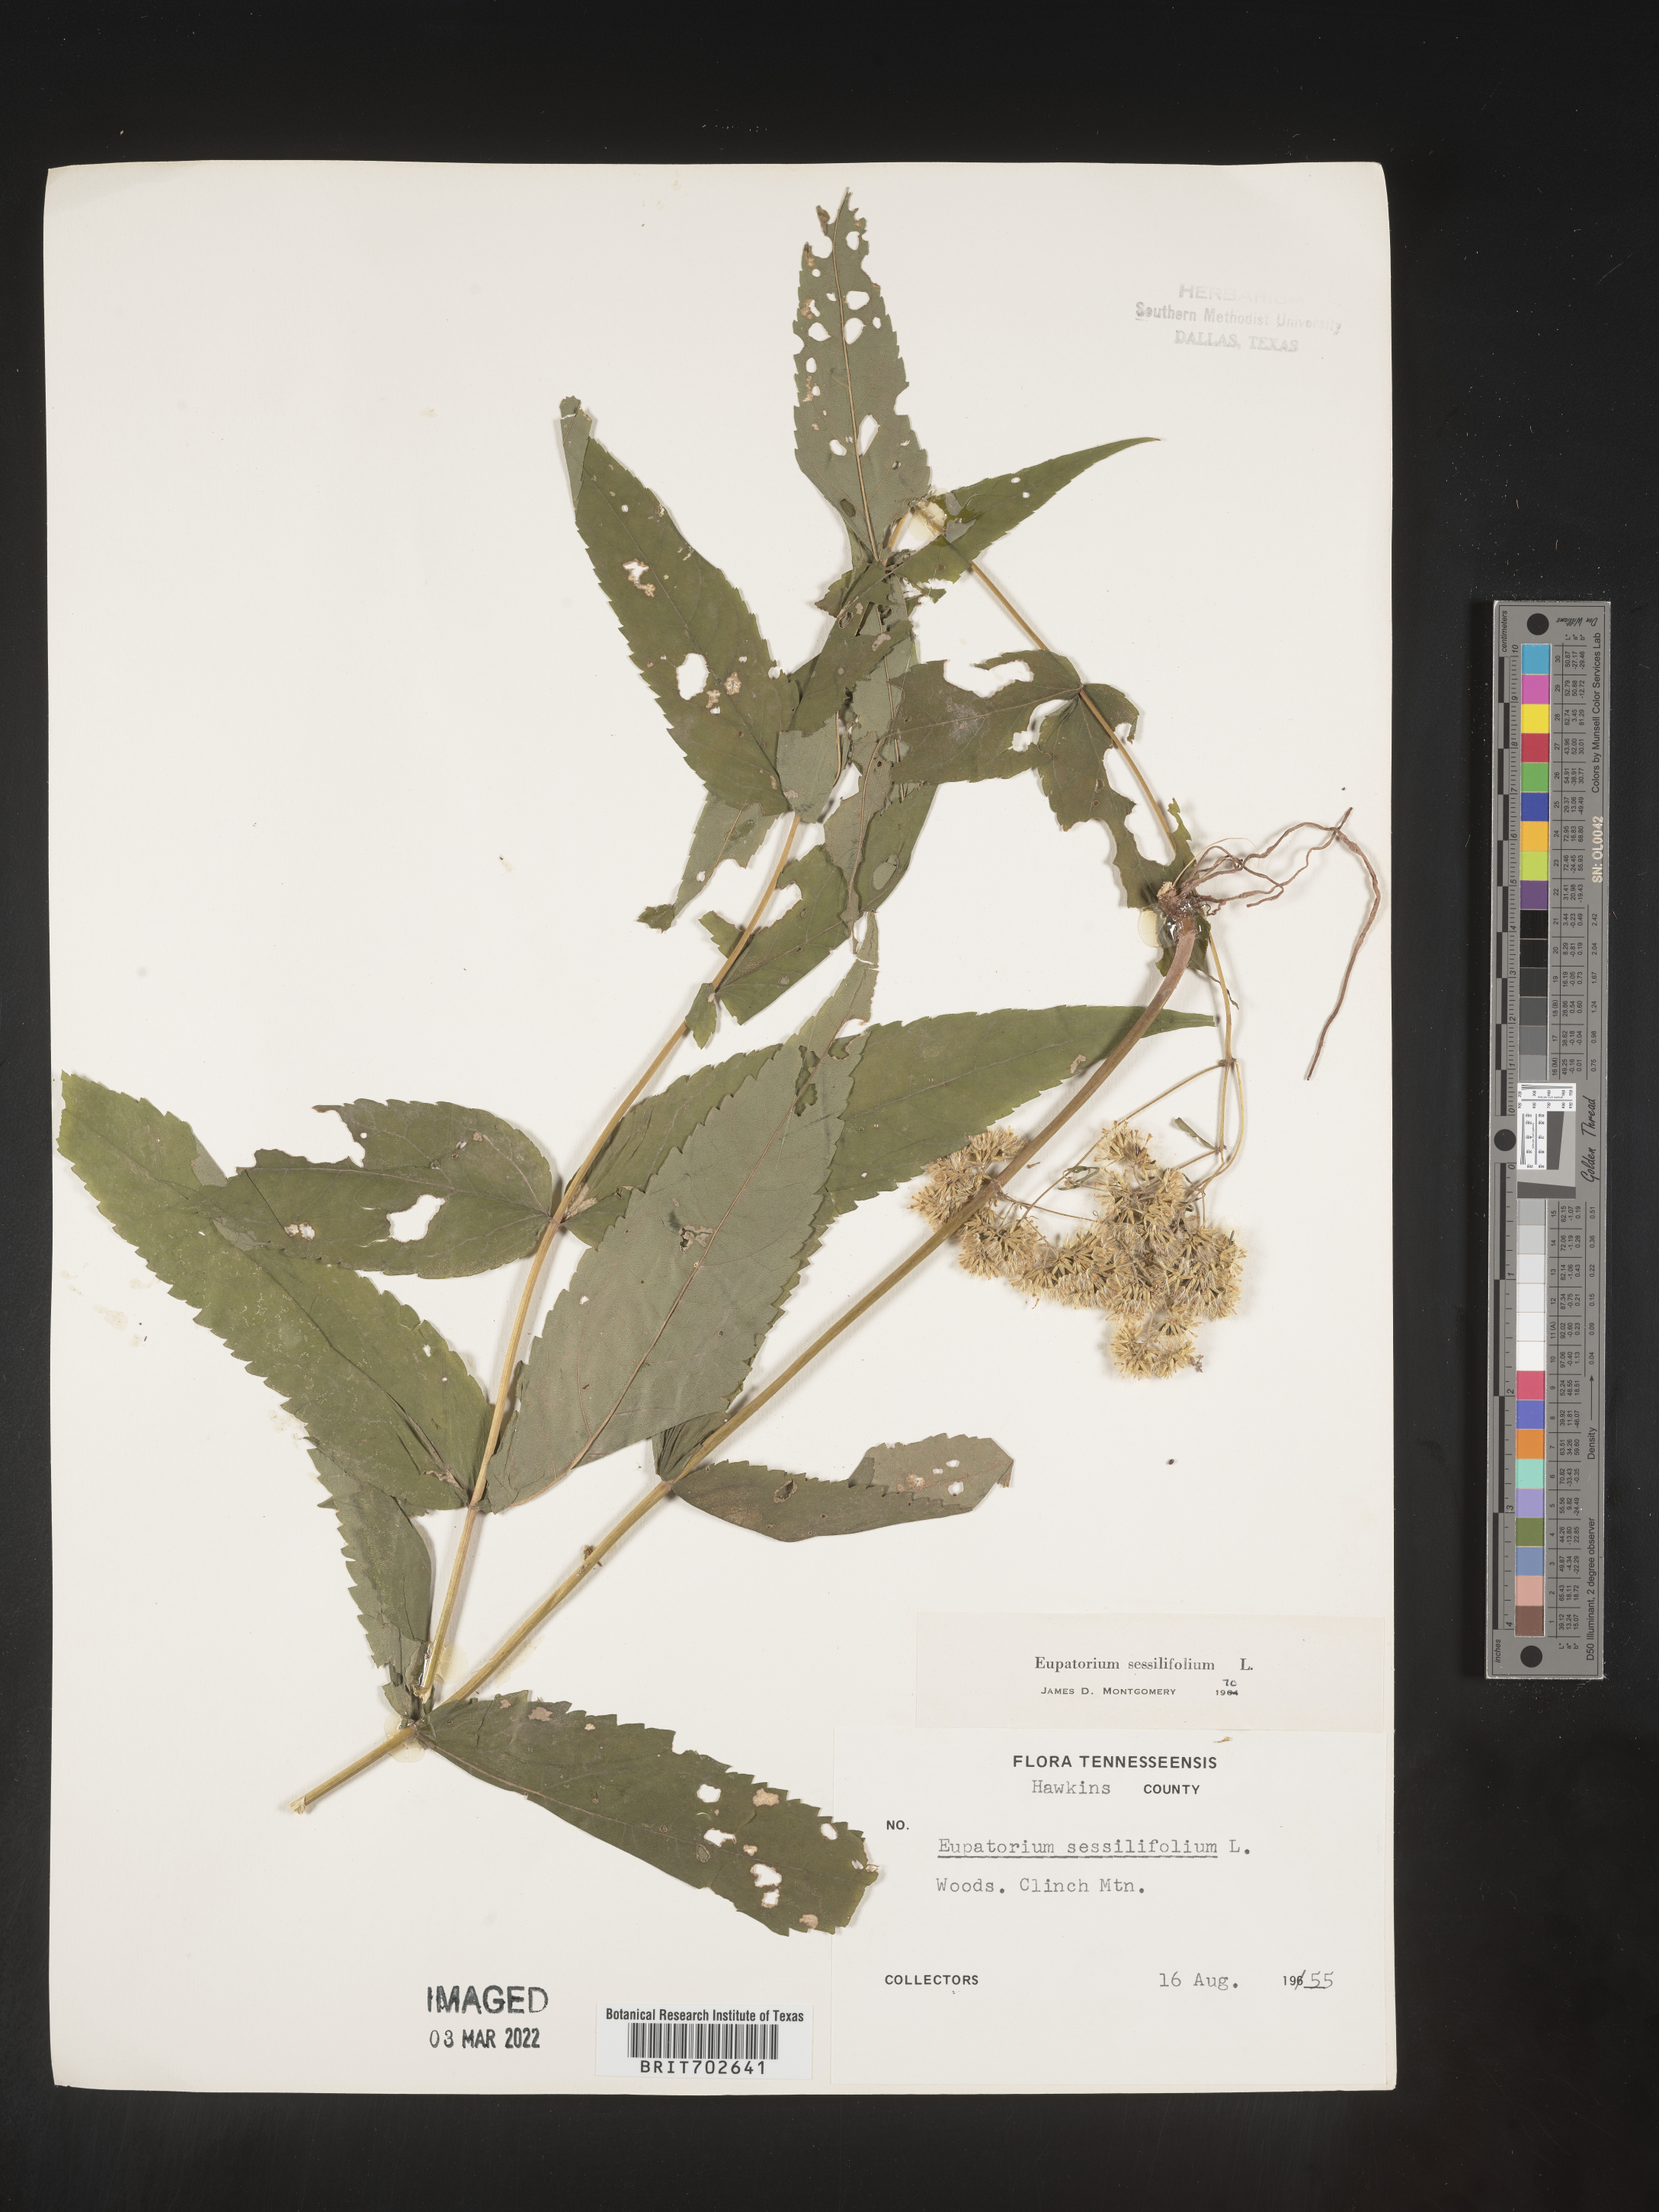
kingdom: Plantae
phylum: Tracheophyta
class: Magnoliopsida
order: Asterales
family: Asteraceae
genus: Eupatorium
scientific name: Eupatorium sessilifolium
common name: Upland boneset
